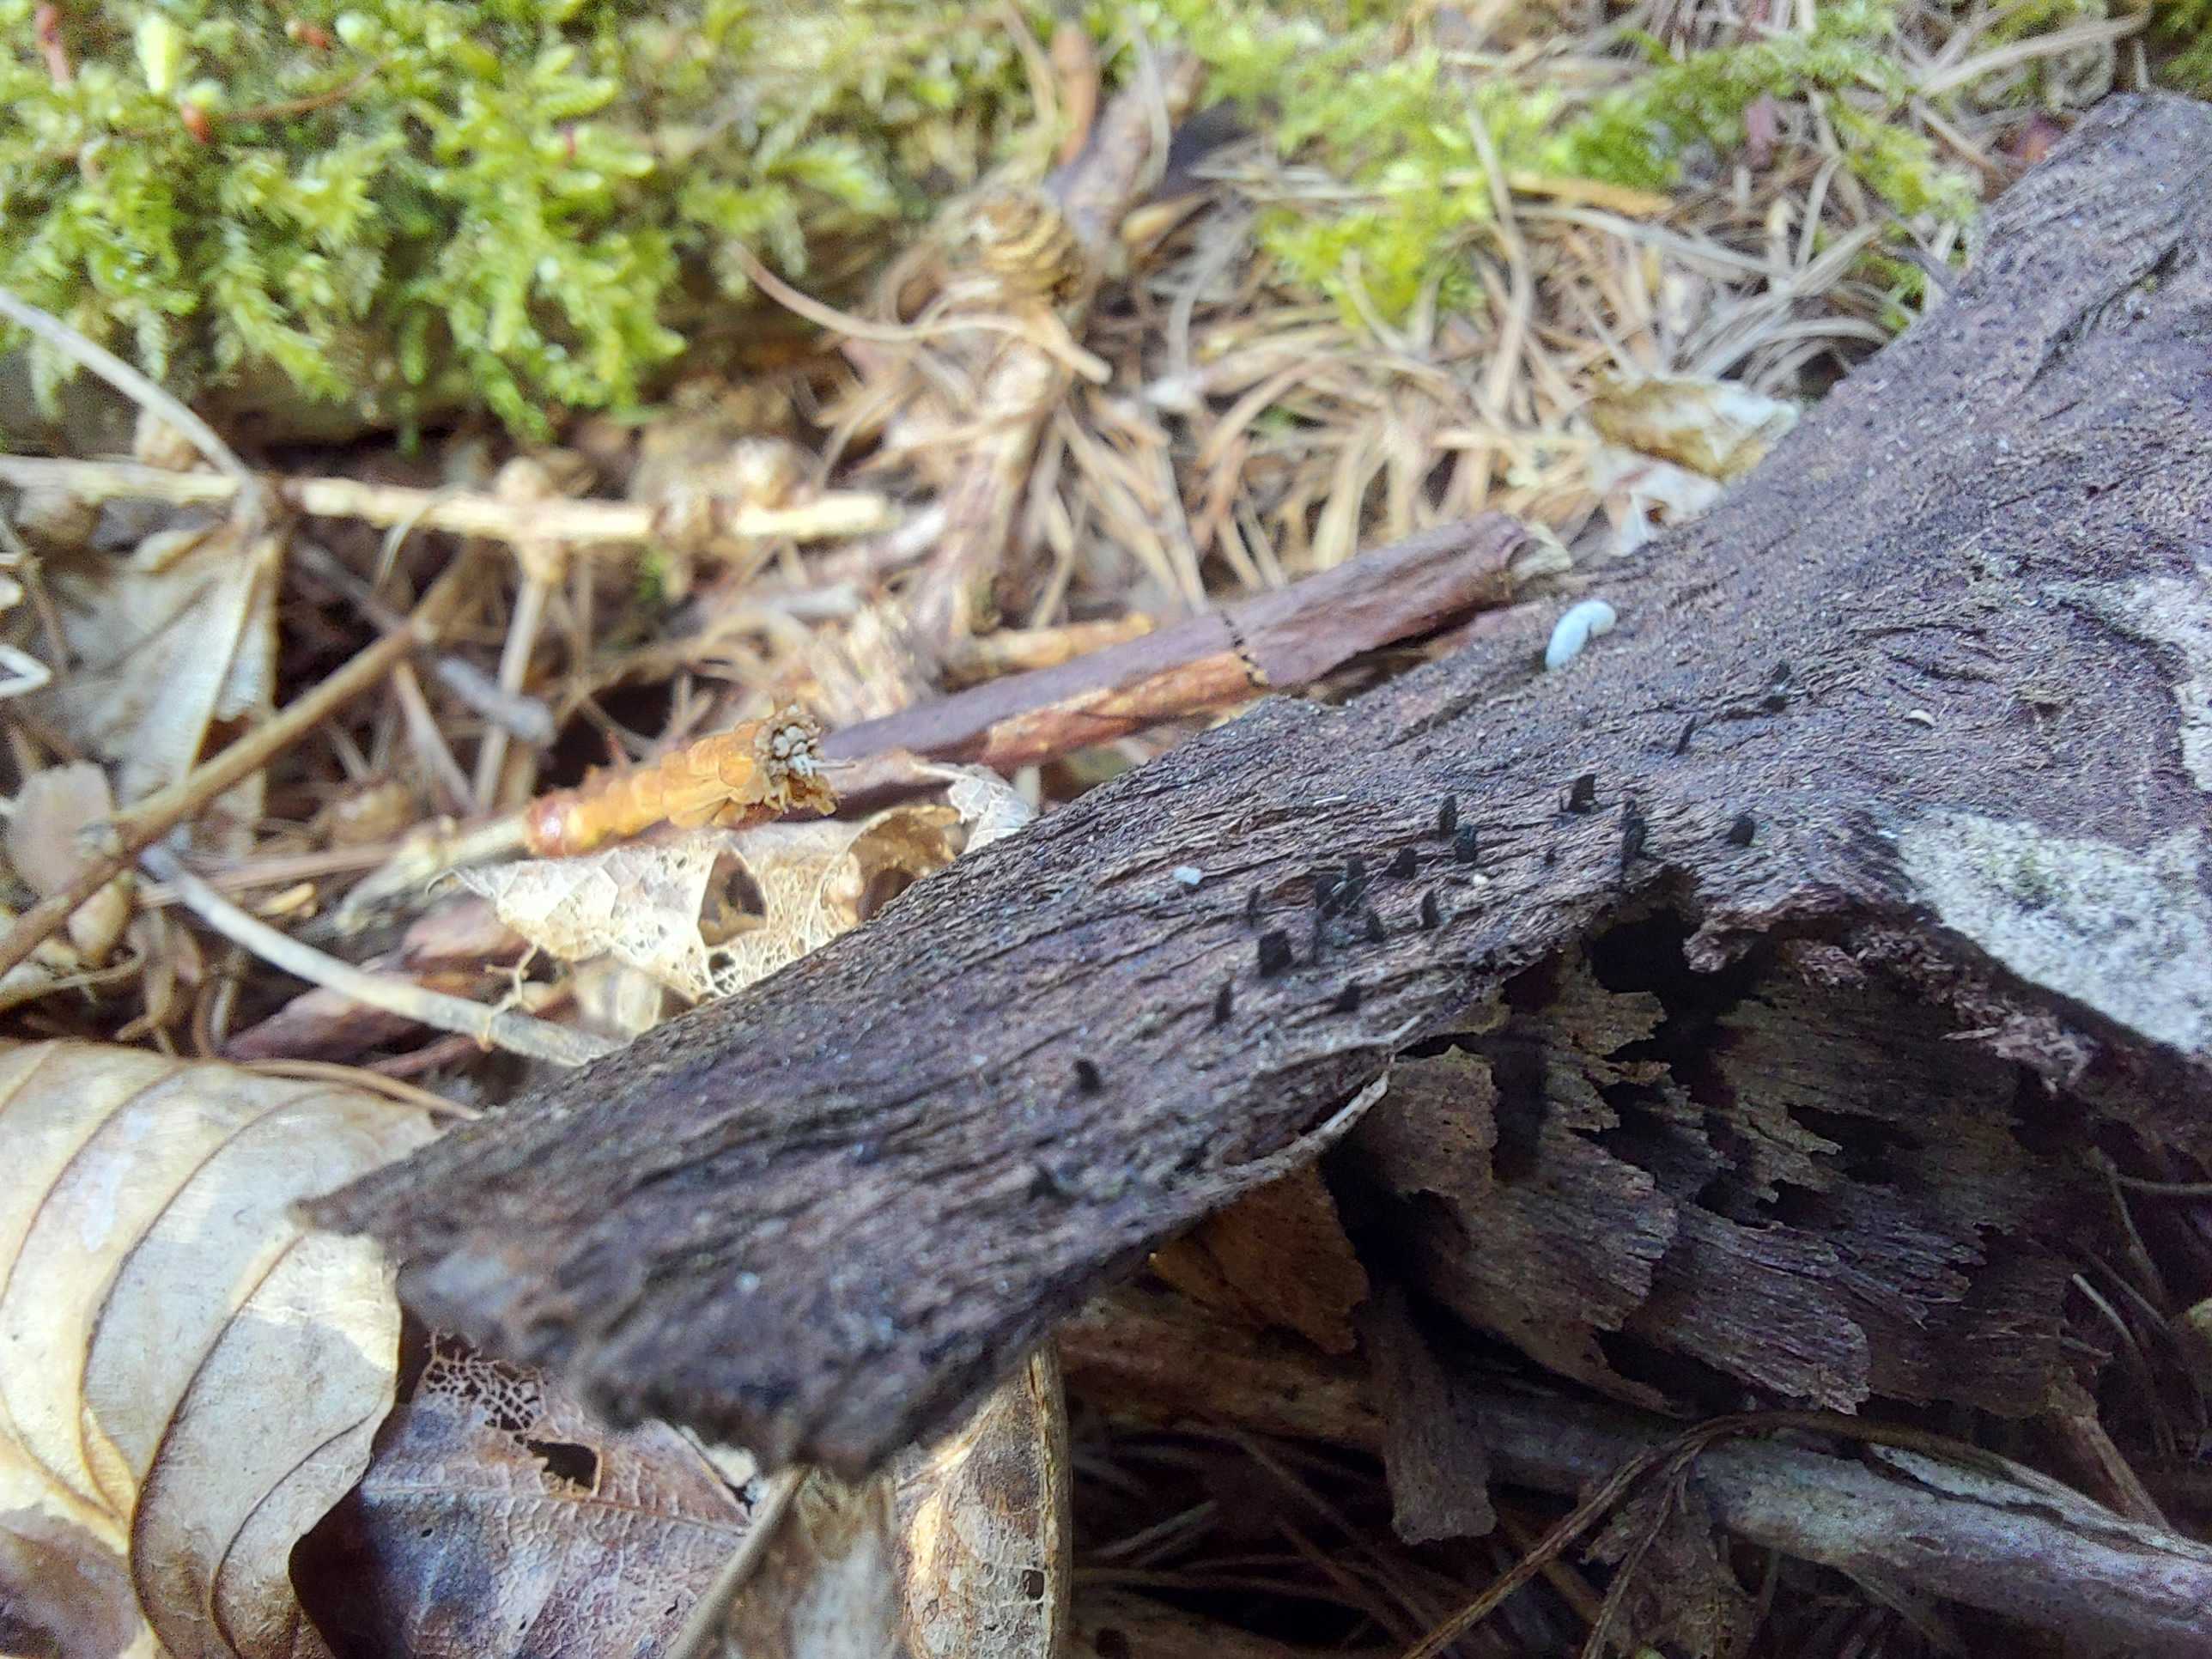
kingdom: Fungi
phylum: Ascomycota
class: Eurotiomycetes
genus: Glyphium
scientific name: Glyphium elatum
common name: kuløkse
